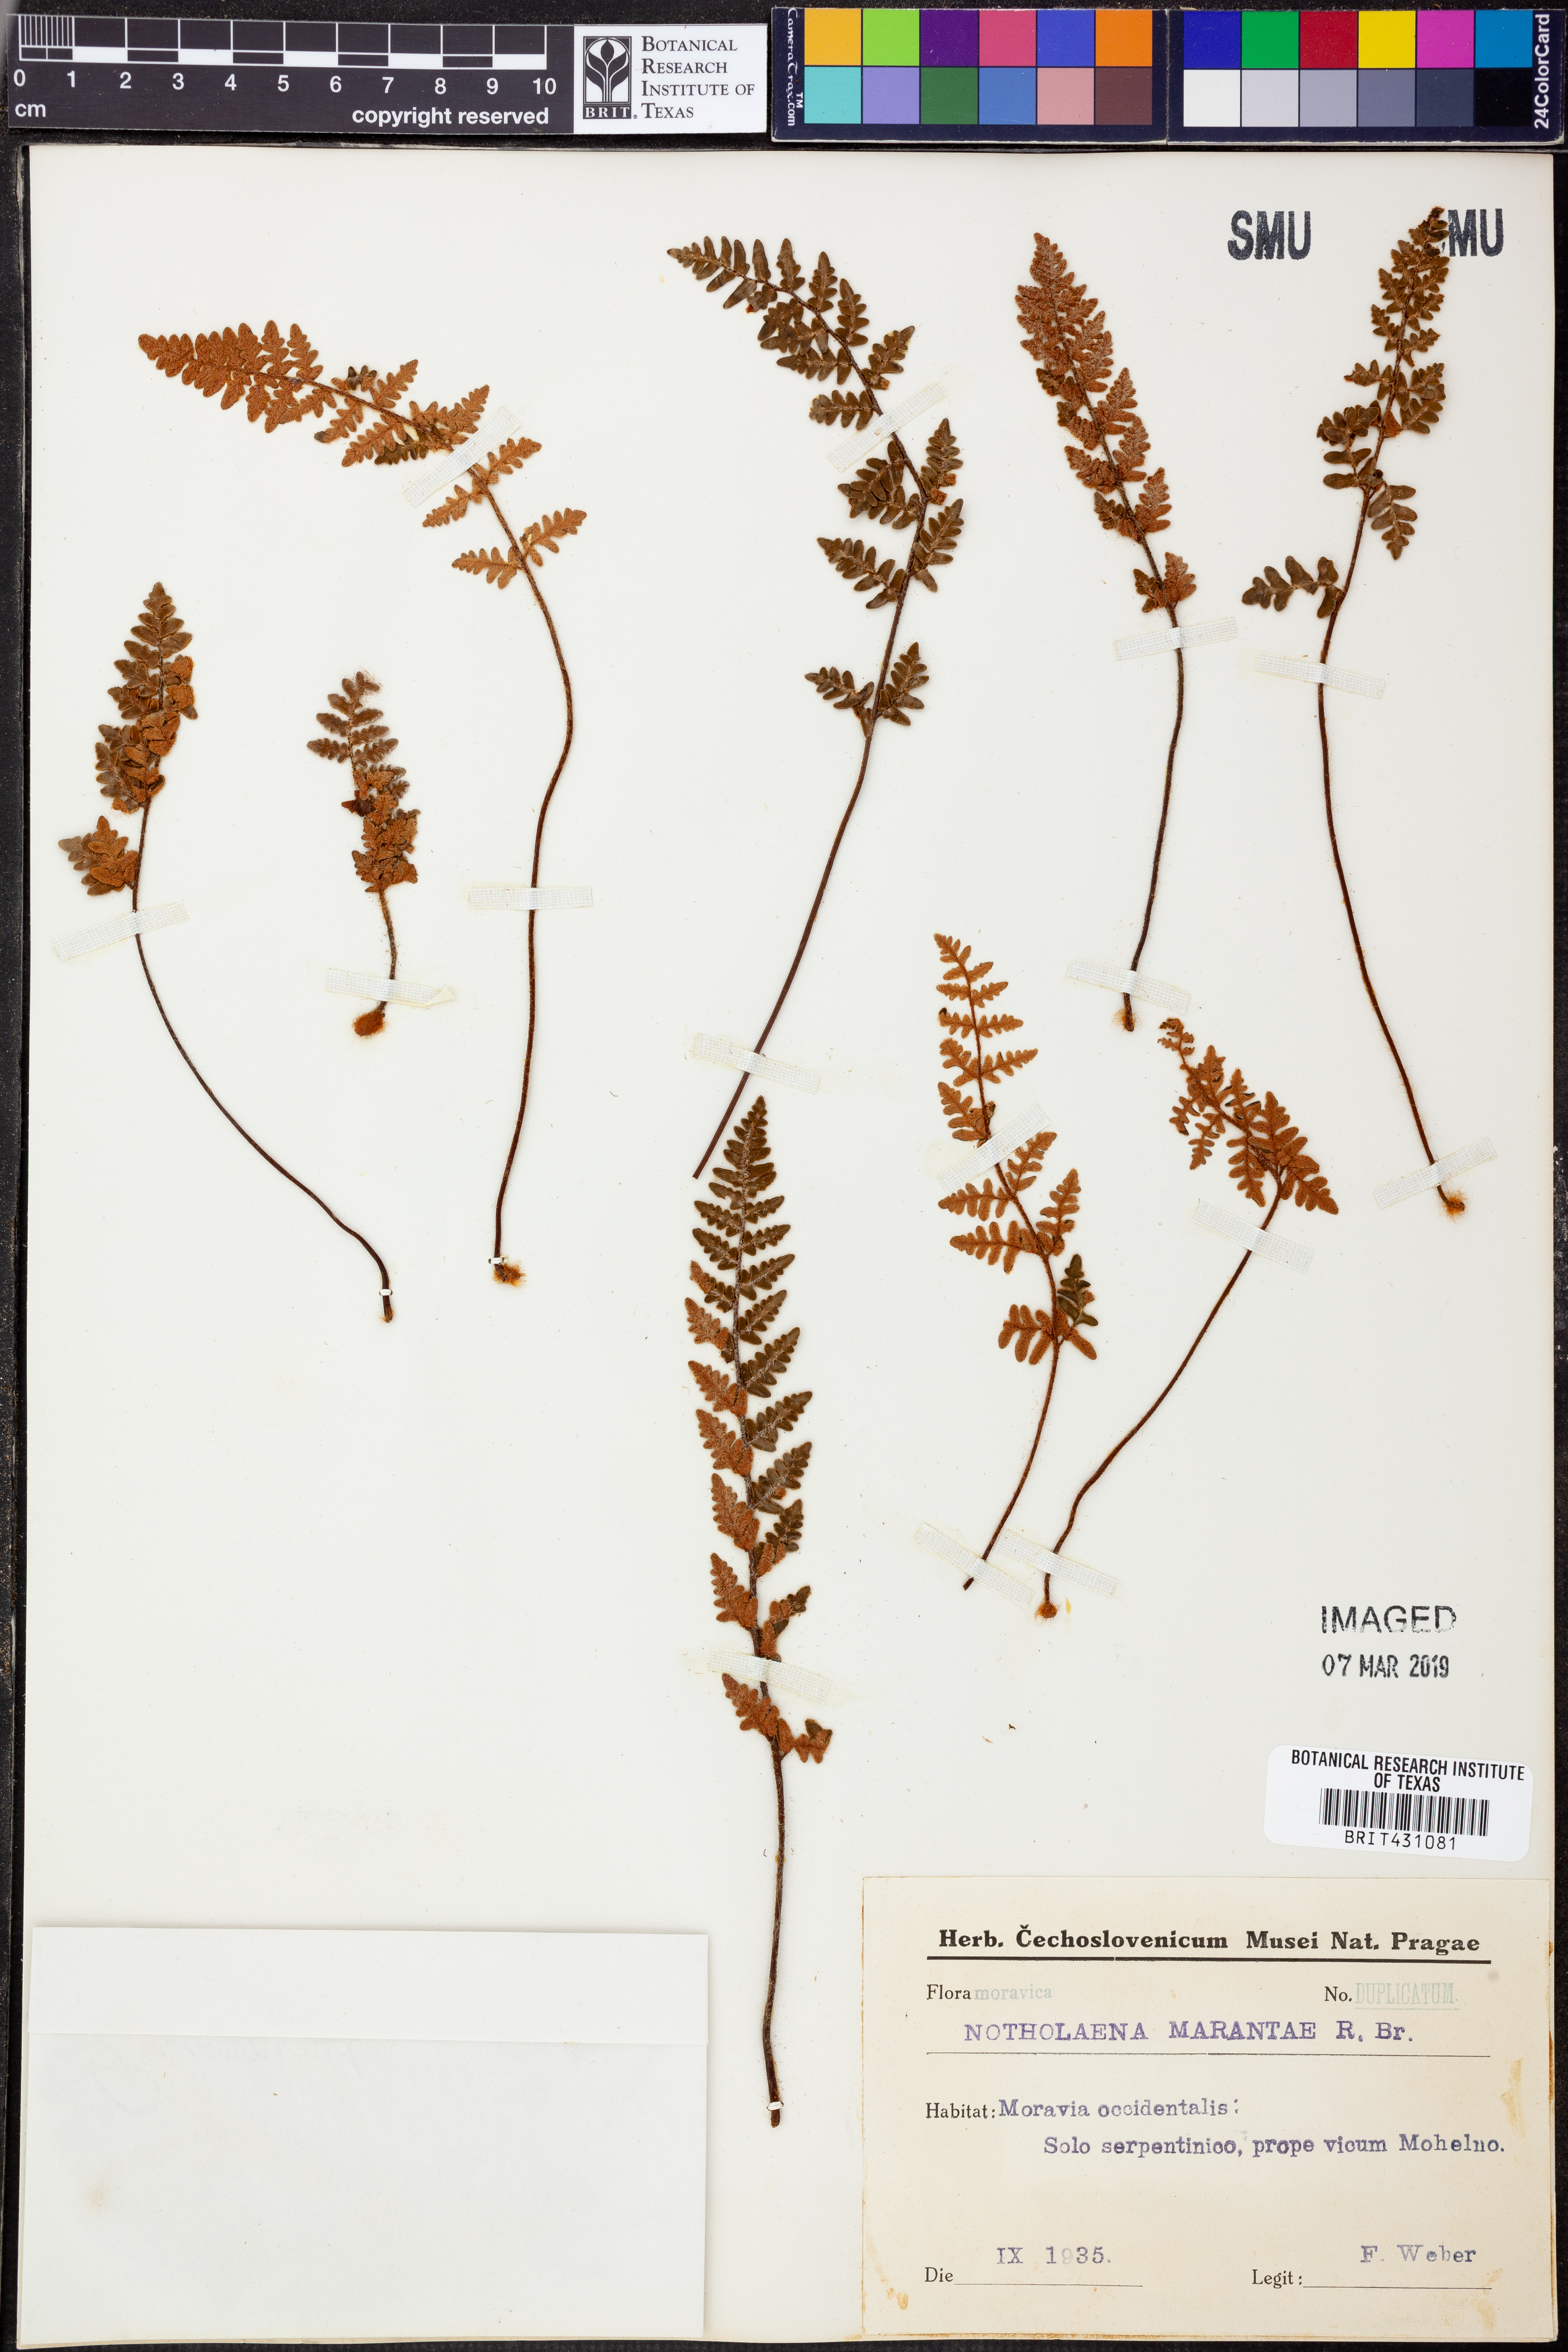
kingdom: Plantae
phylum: Tracheophyta
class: Polypodiopsida
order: Polypodiales
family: Pteridaceae
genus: Paragymnopteris
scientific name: Paragymnopteris marantae
